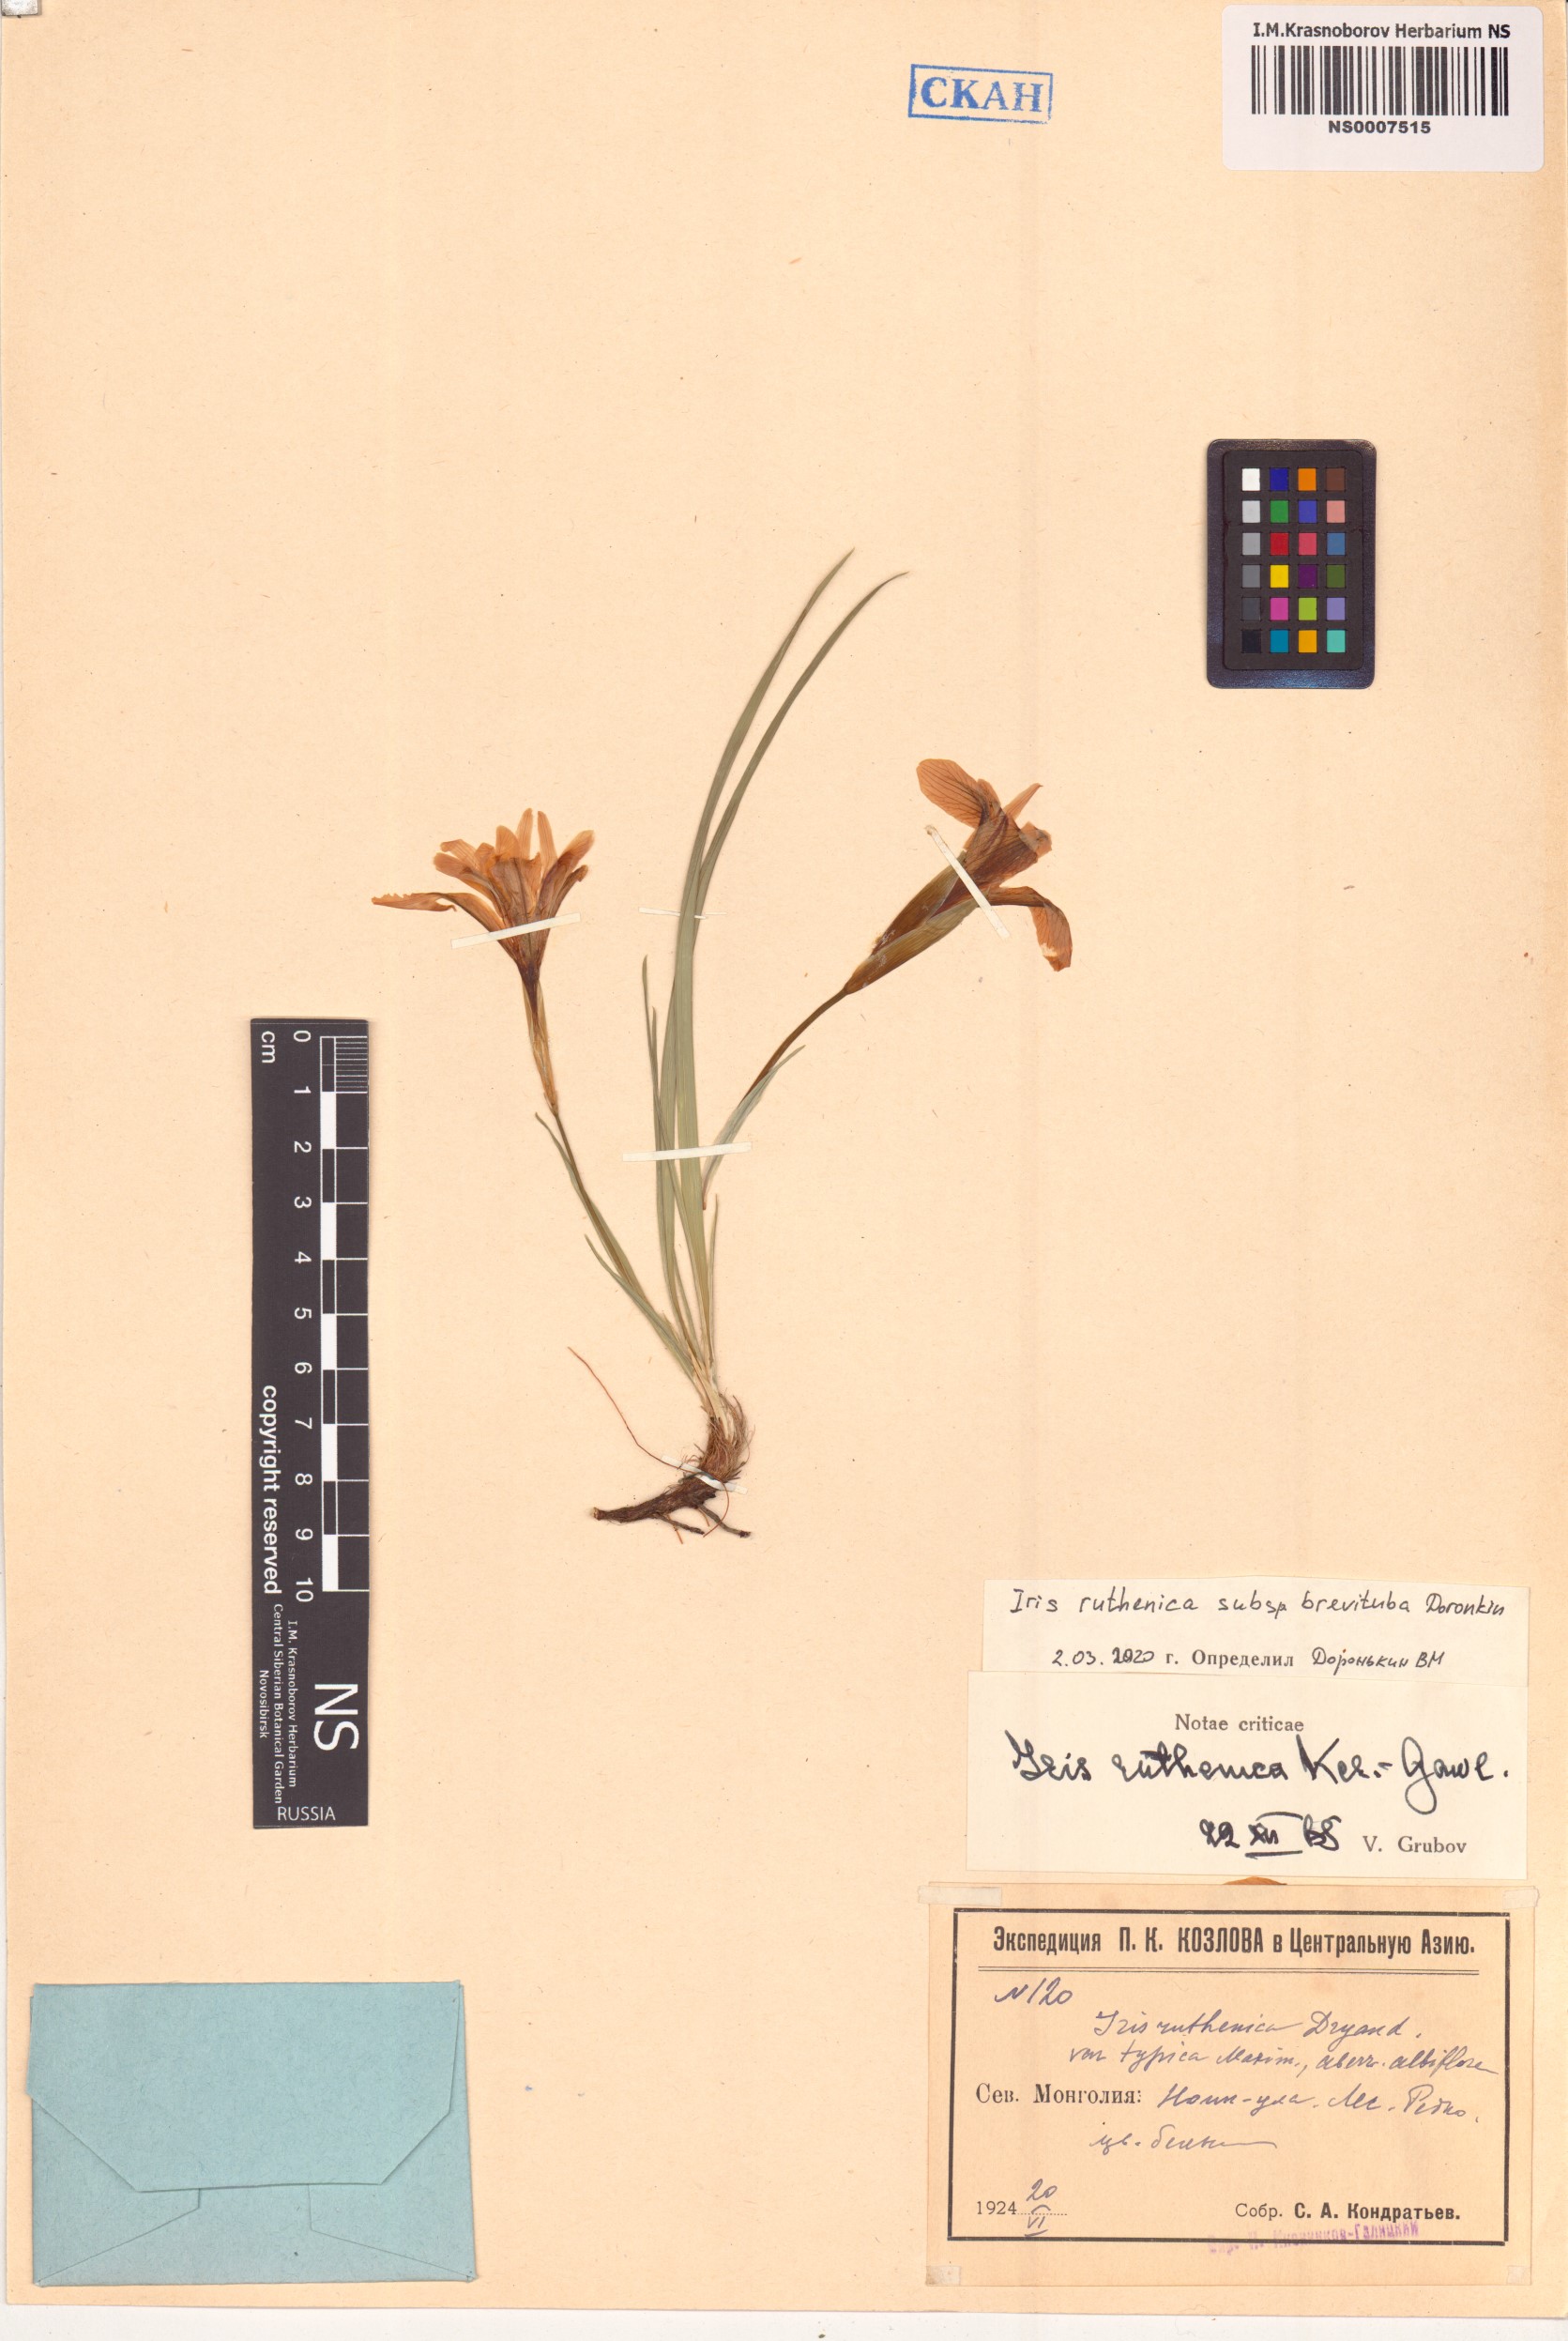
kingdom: Plantae
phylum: Tracheophyta
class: Liliopsida
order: Asparagales
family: Iridaceae
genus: Iris
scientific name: Iris ruthenica
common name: Purple-bract iris
